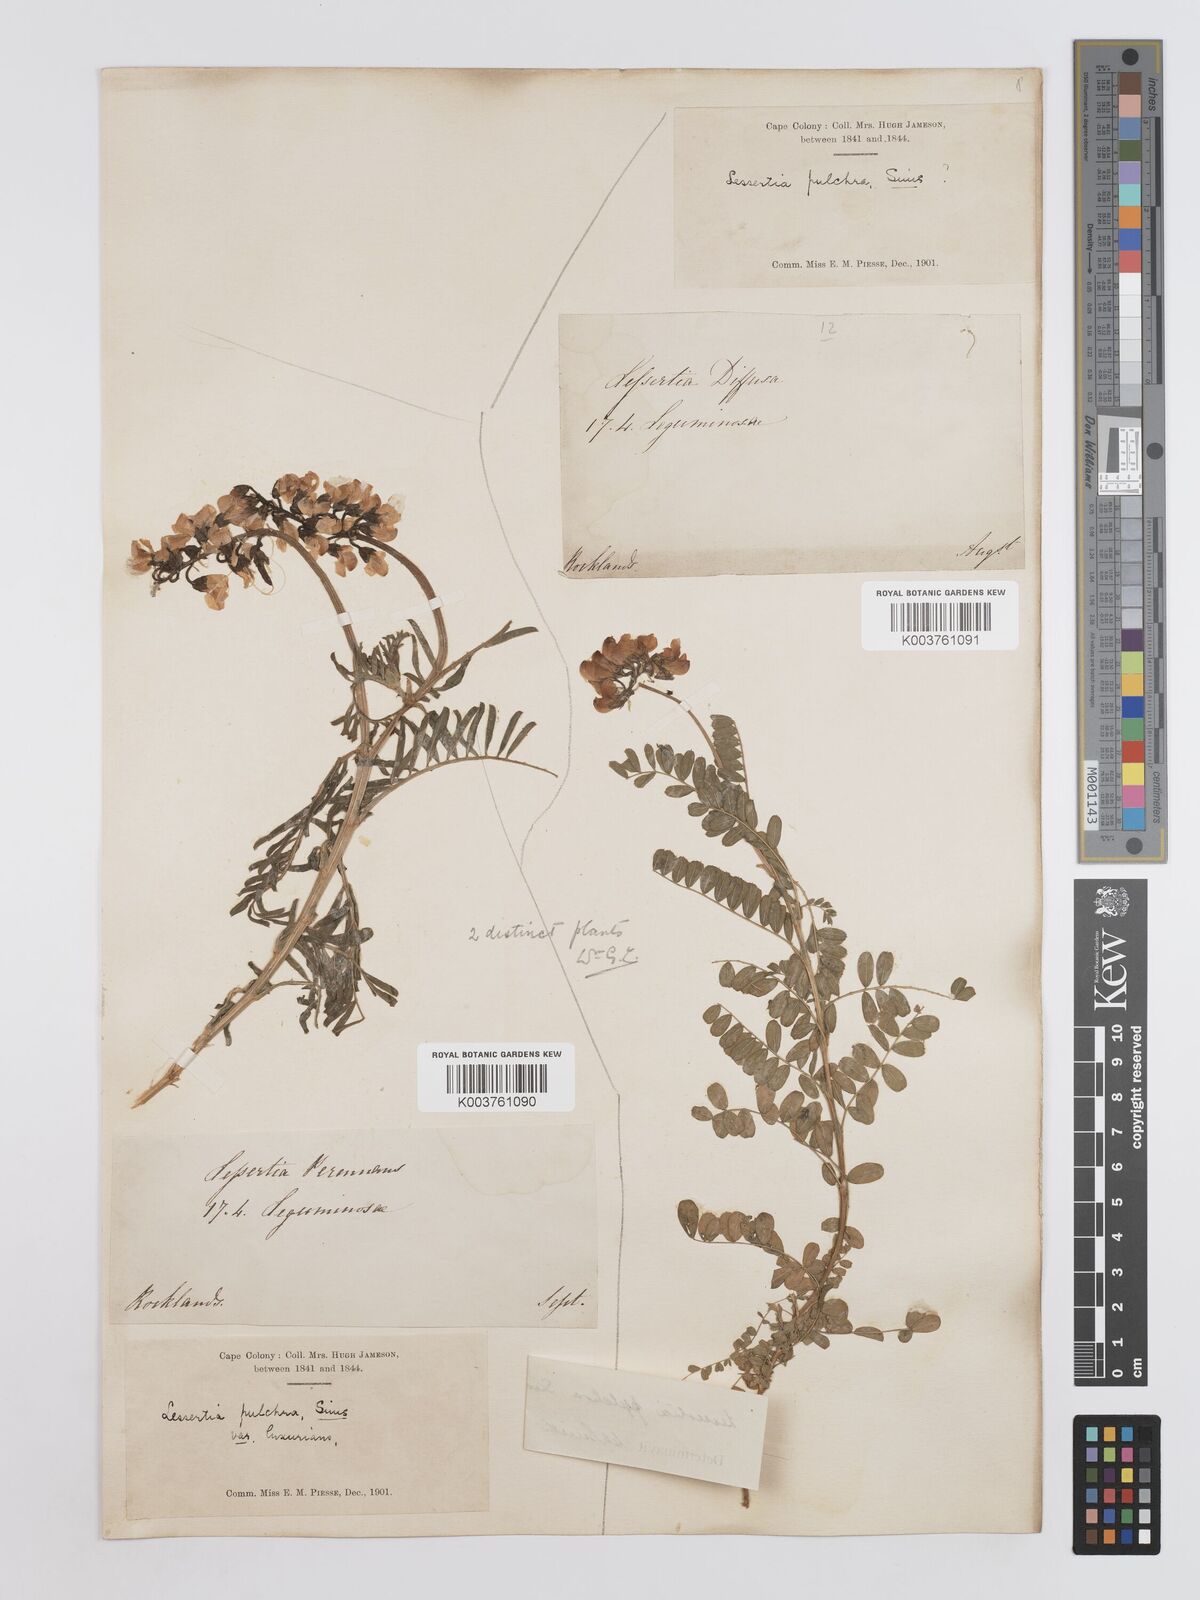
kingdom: Plantae
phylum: Tracheophyta
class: Magnoliopsida
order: Fabales
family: Fabaceae
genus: Lessertia
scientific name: Lessertia capensis
